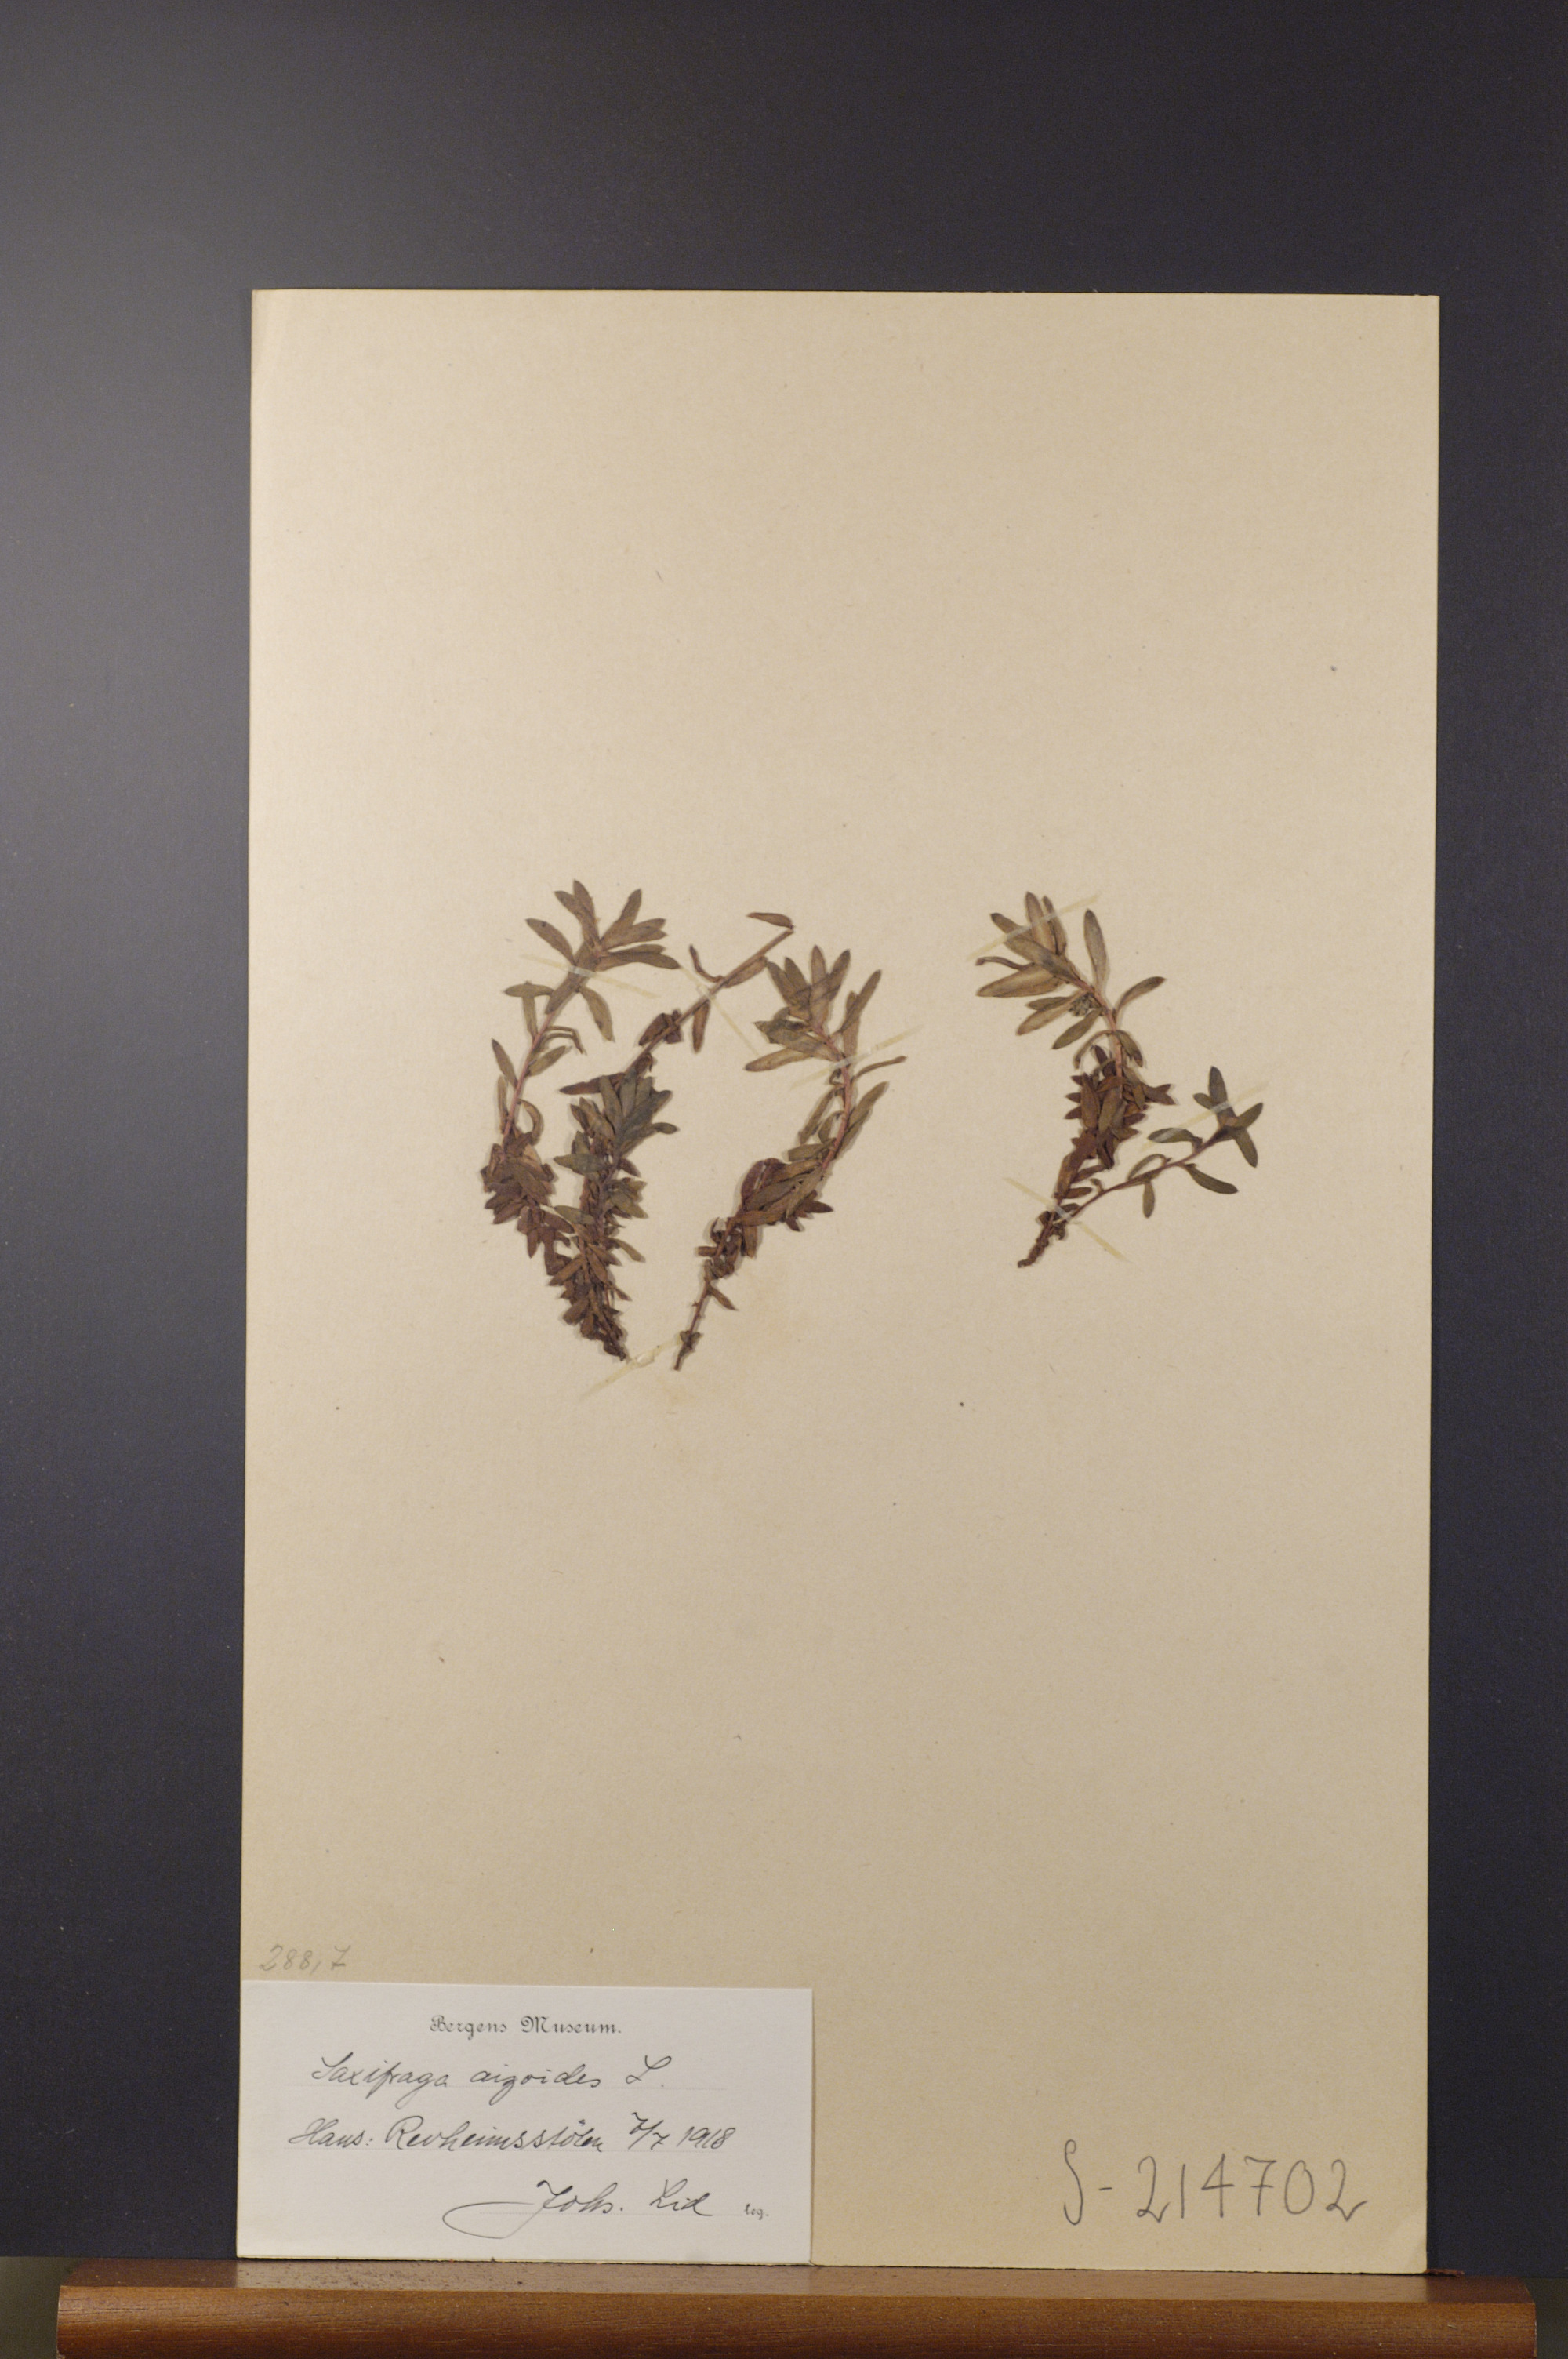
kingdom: Plantae
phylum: Tracheophyta
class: Magnoliopsida
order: Saxifragales
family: Saxifragaceae
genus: Saxifraga
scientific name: Saxifraga aizoides
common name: Yellow mountain saxifrage
